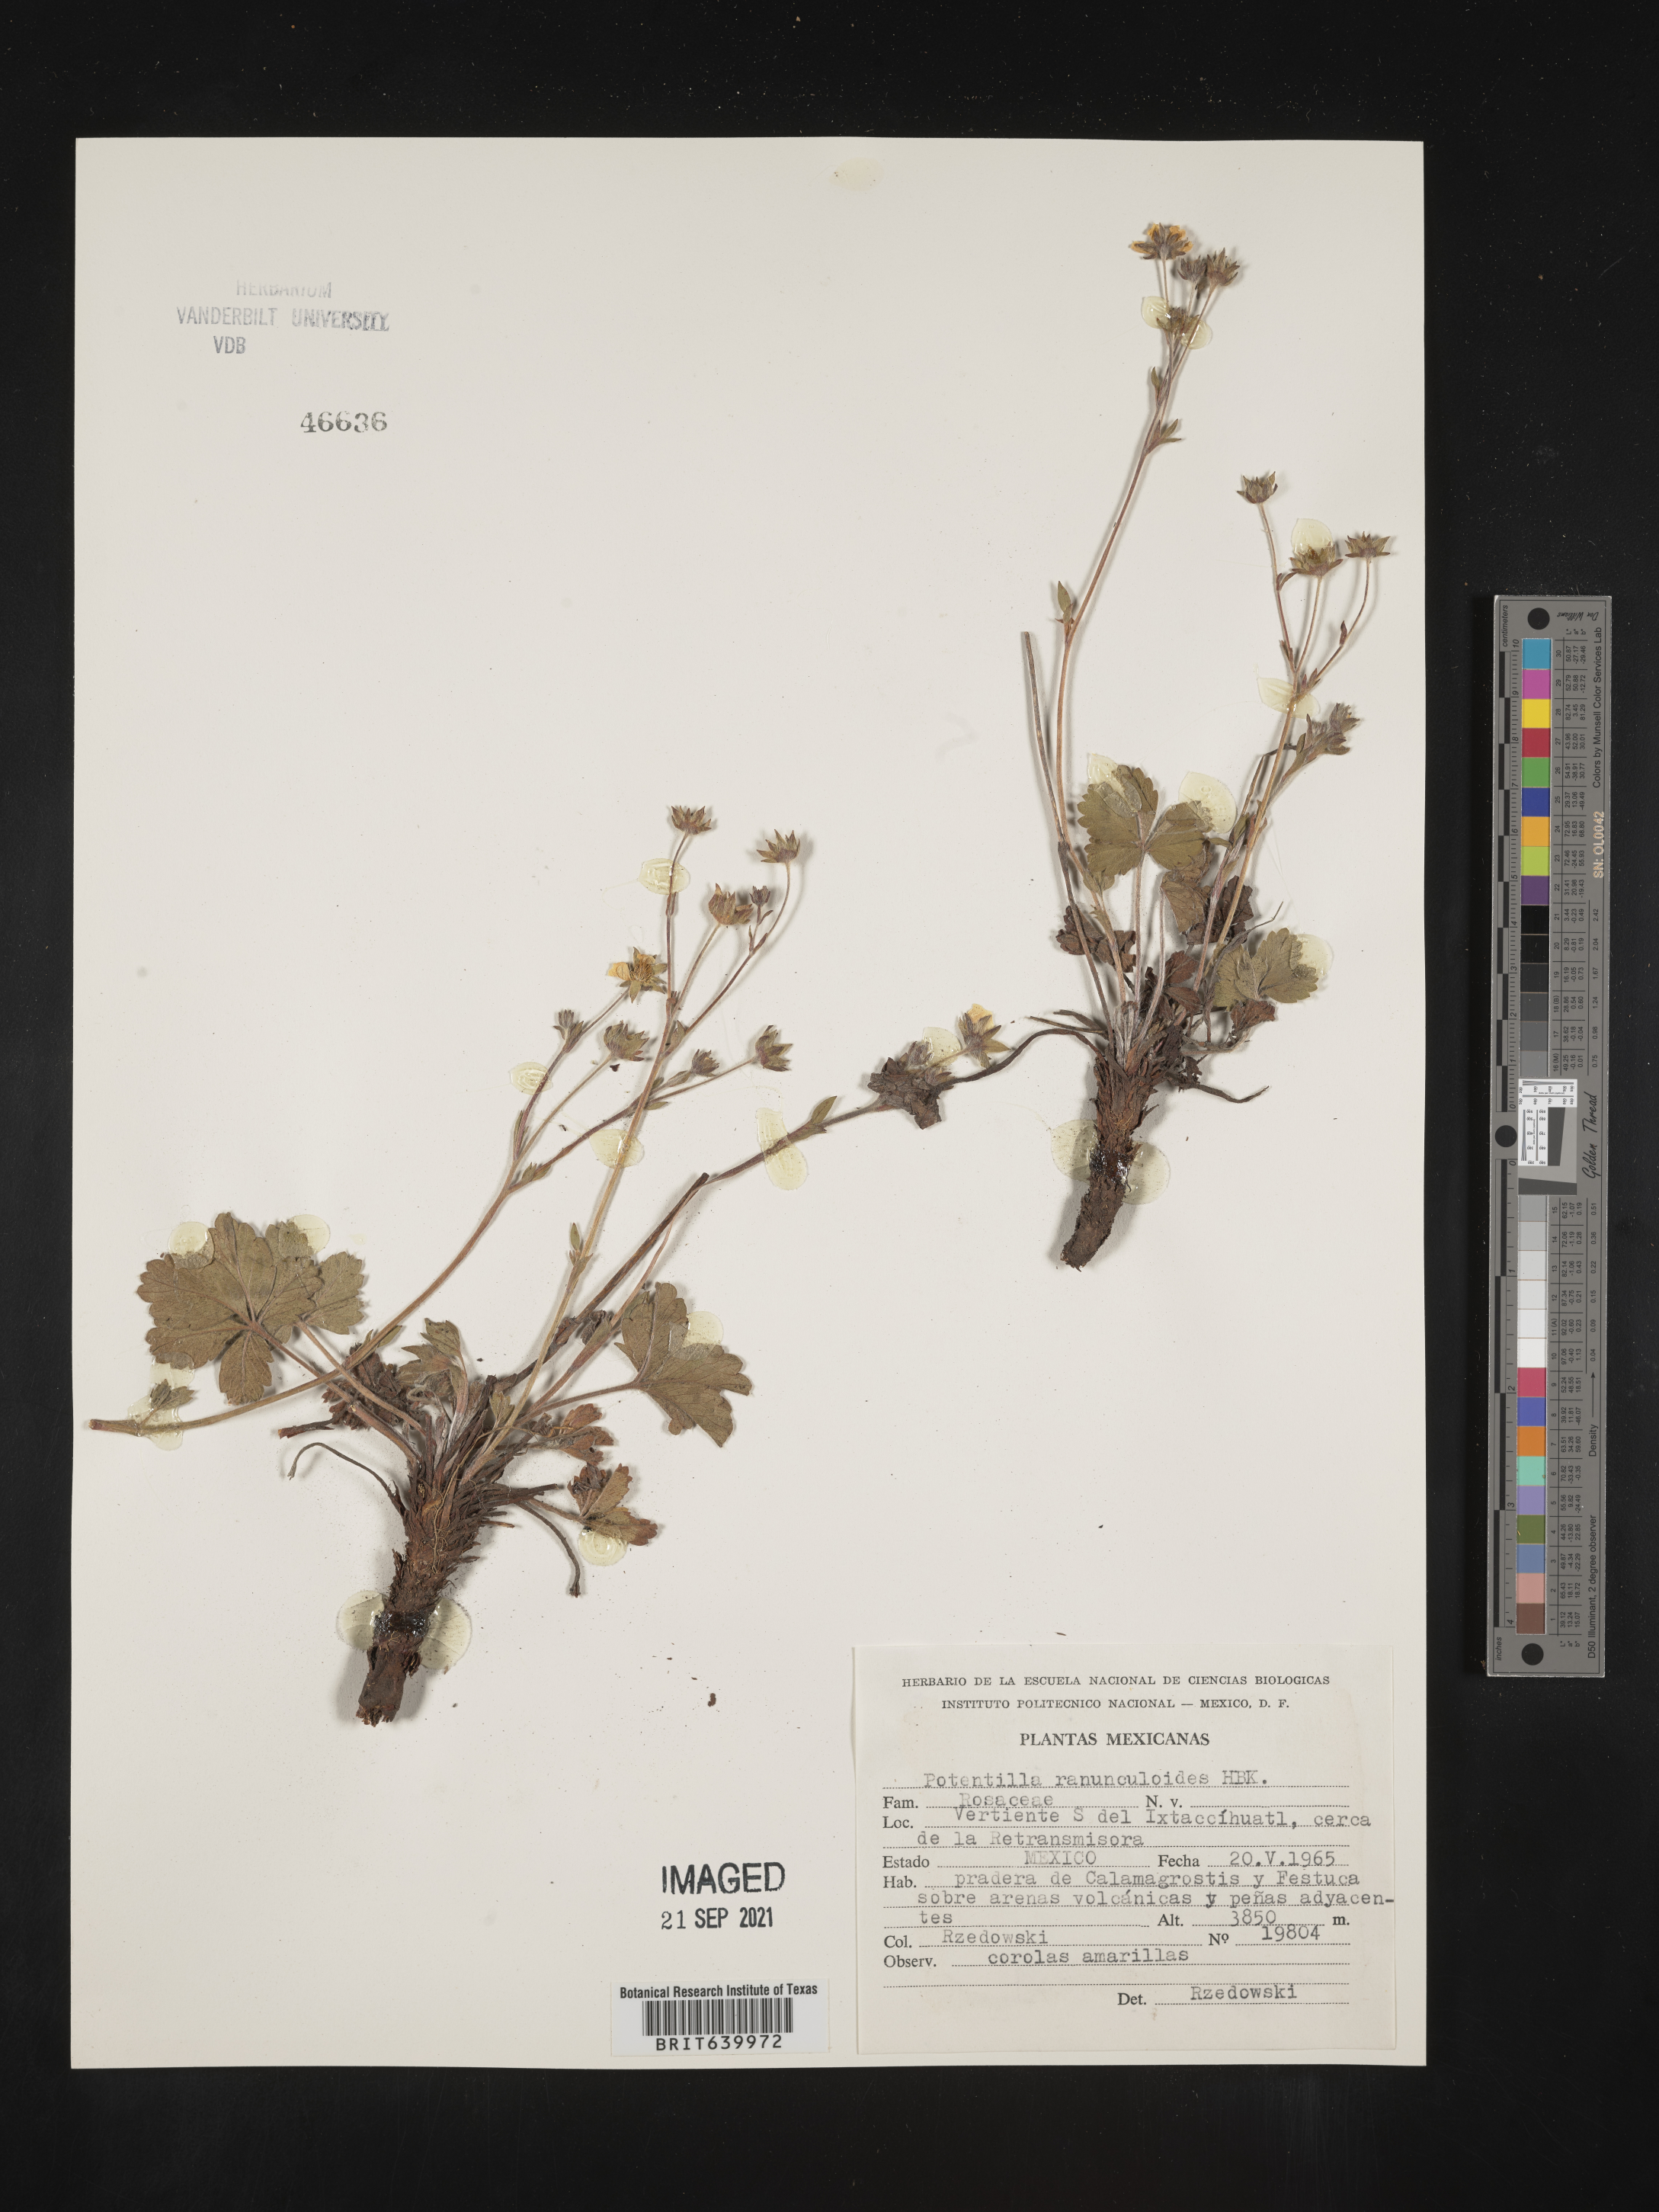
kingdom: Plantae
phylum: Tracheophyta
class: Magnoliopsida
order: Rosales
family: Rosaceae
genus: Potentilla
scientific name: Potentilla
